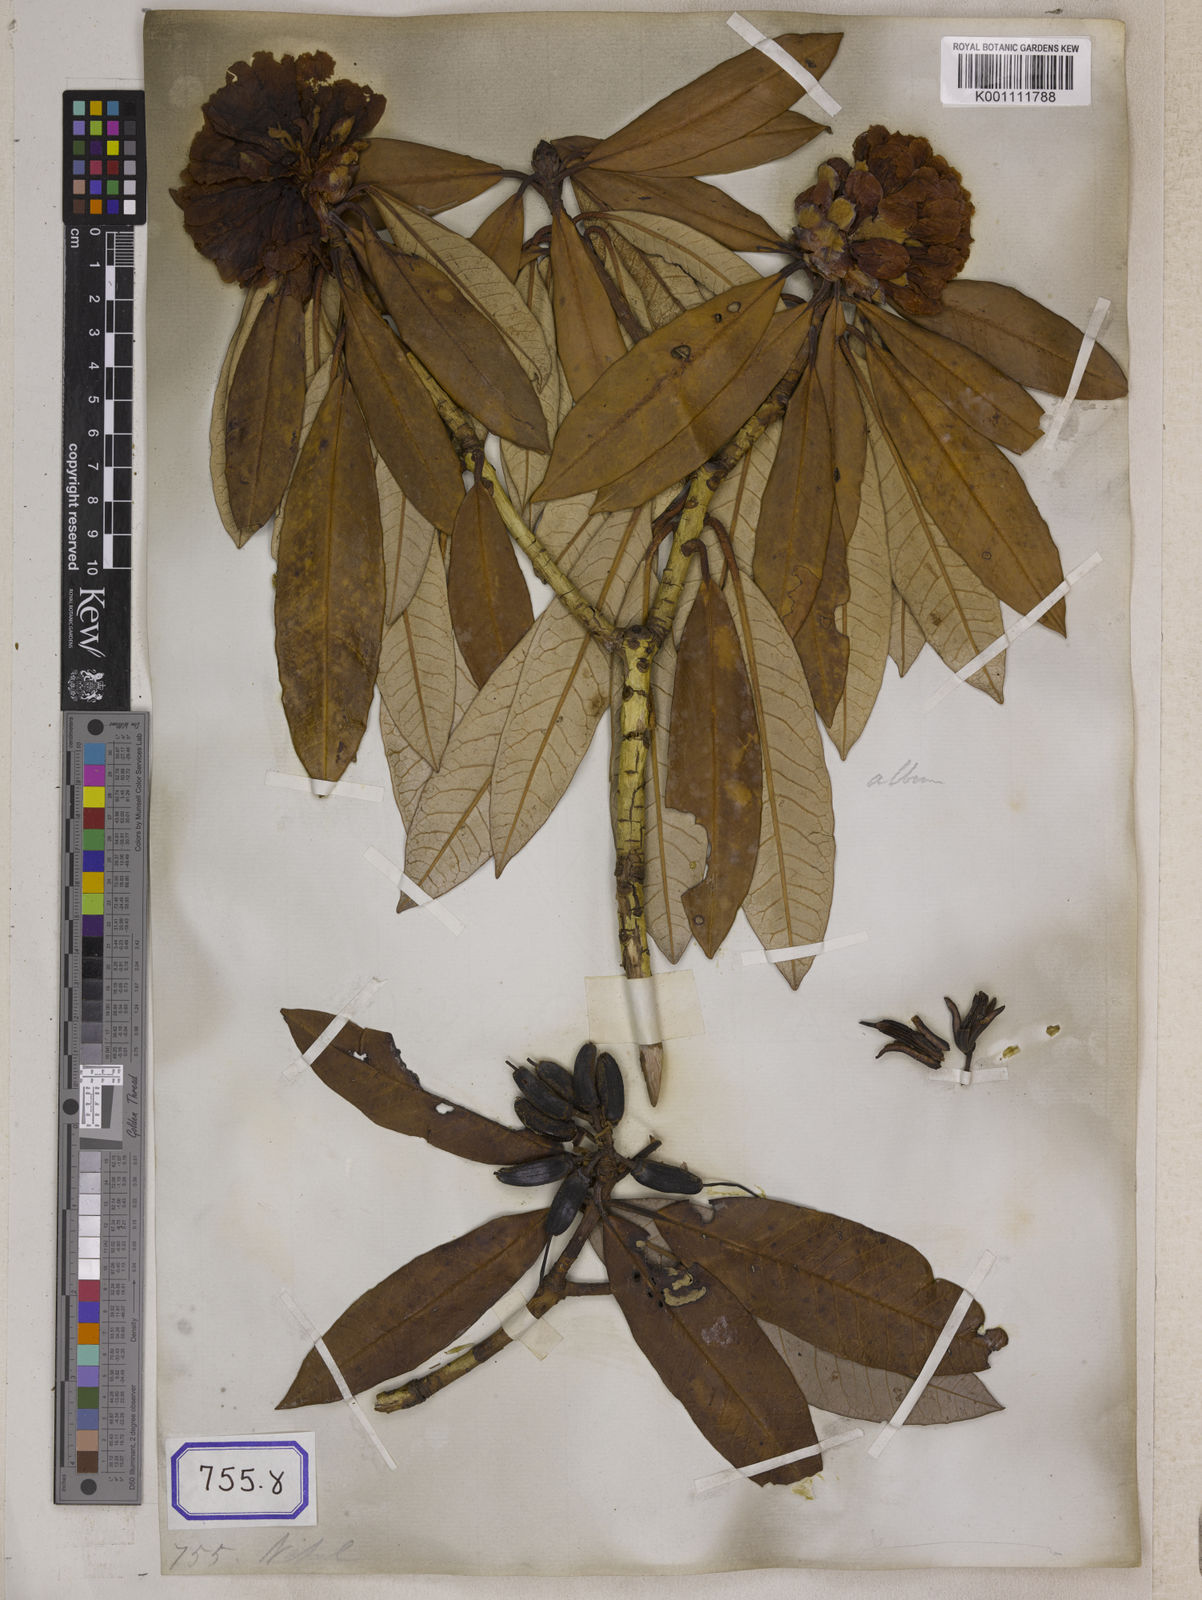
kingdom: Plantae
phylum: Tracheophyta
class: Magnoliopsida
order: Ericales
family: Ericaceae
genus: Rhododendron
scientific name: Rhododendron
